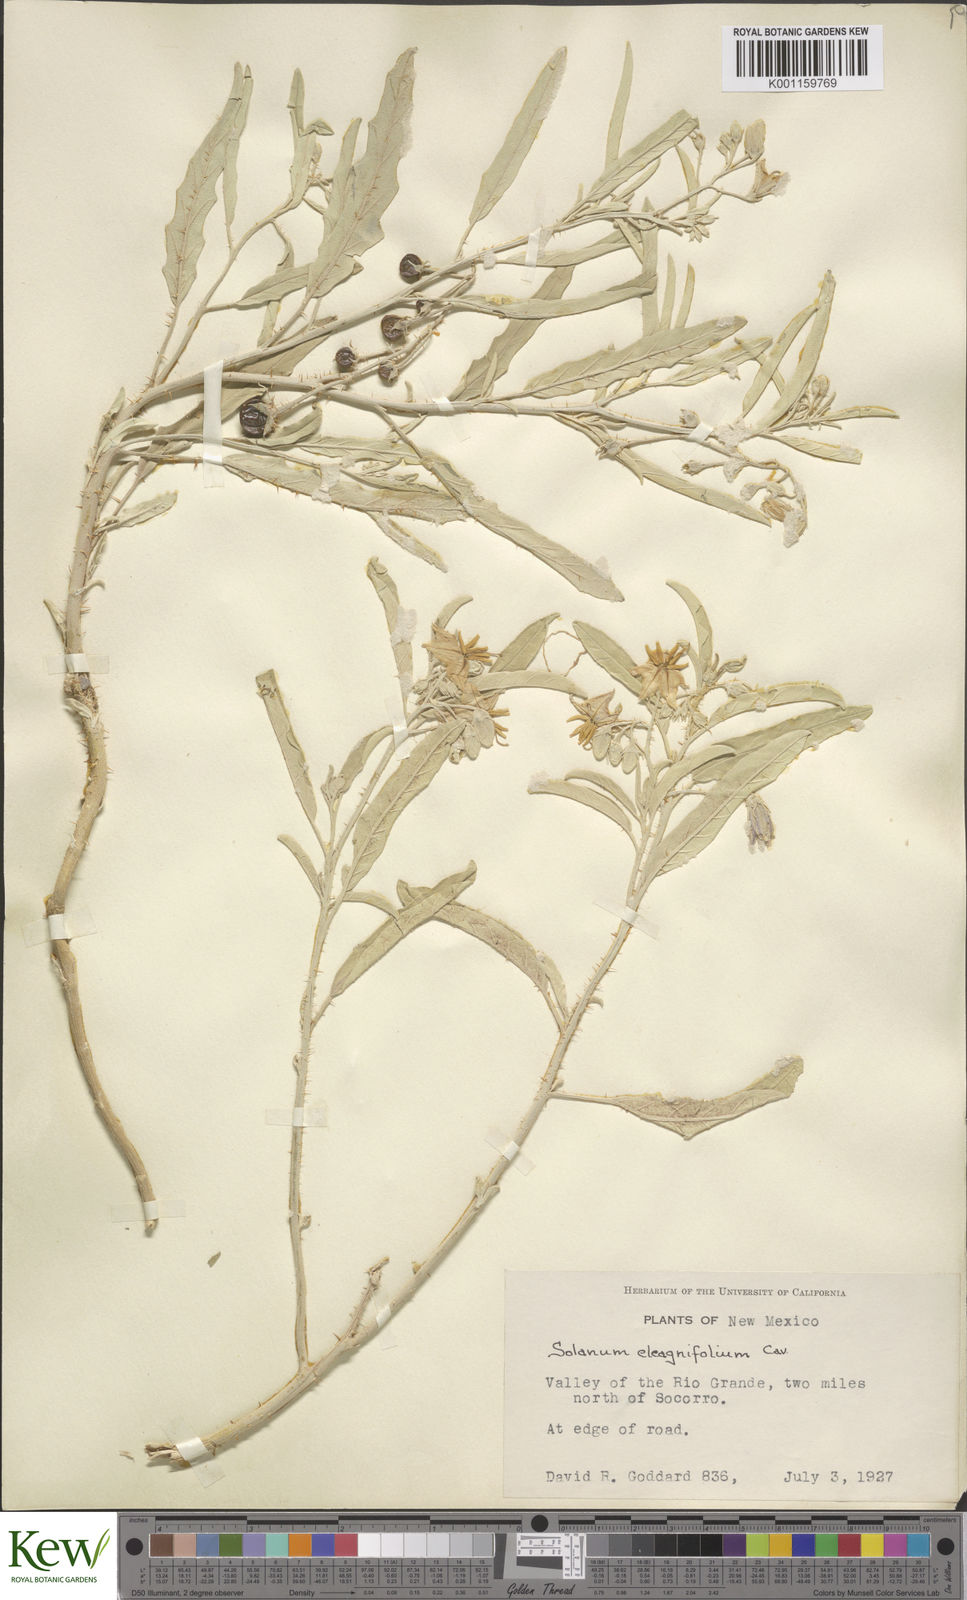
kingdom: Plantae
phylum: Tracheophyta
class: Magnoliopsida
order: Solanales
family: Solanaceae
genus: Solanum
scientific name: Solanum
